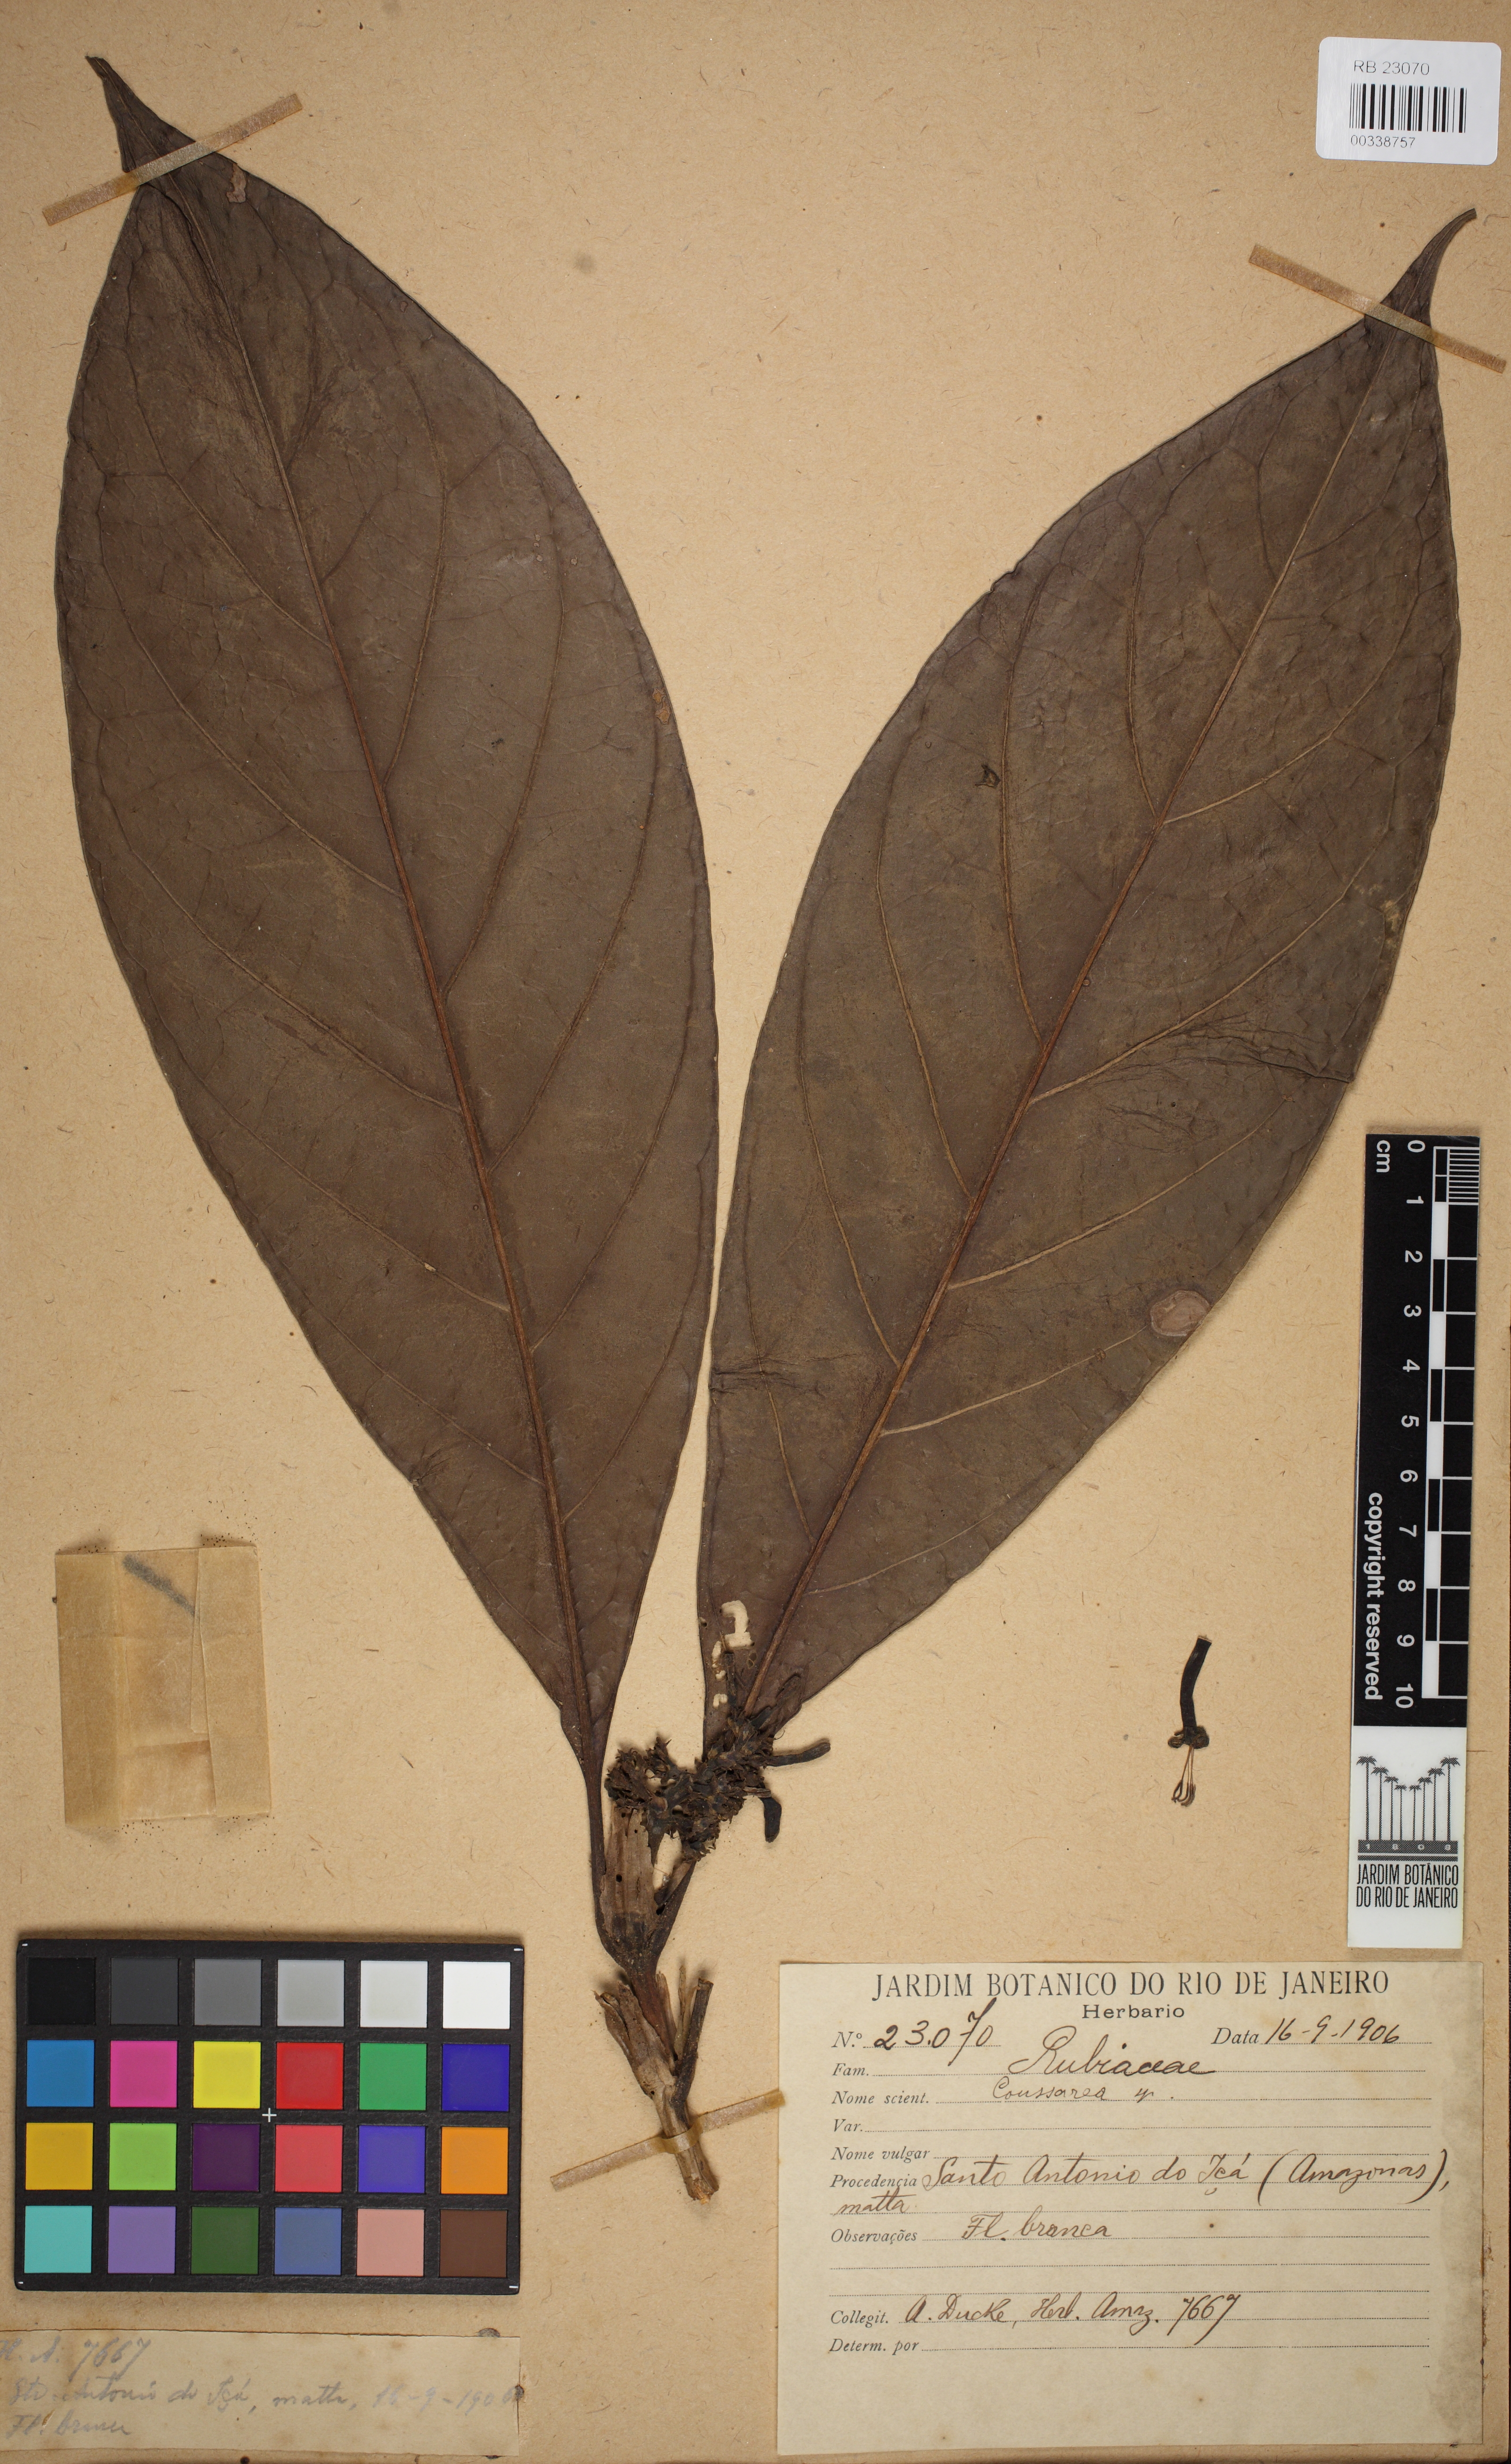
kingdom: Plantae
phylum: Tracheophyta
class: Magnoliopsida
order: Gentianales
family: Rubiaceae
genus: Coussarea
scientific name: Coussarea
